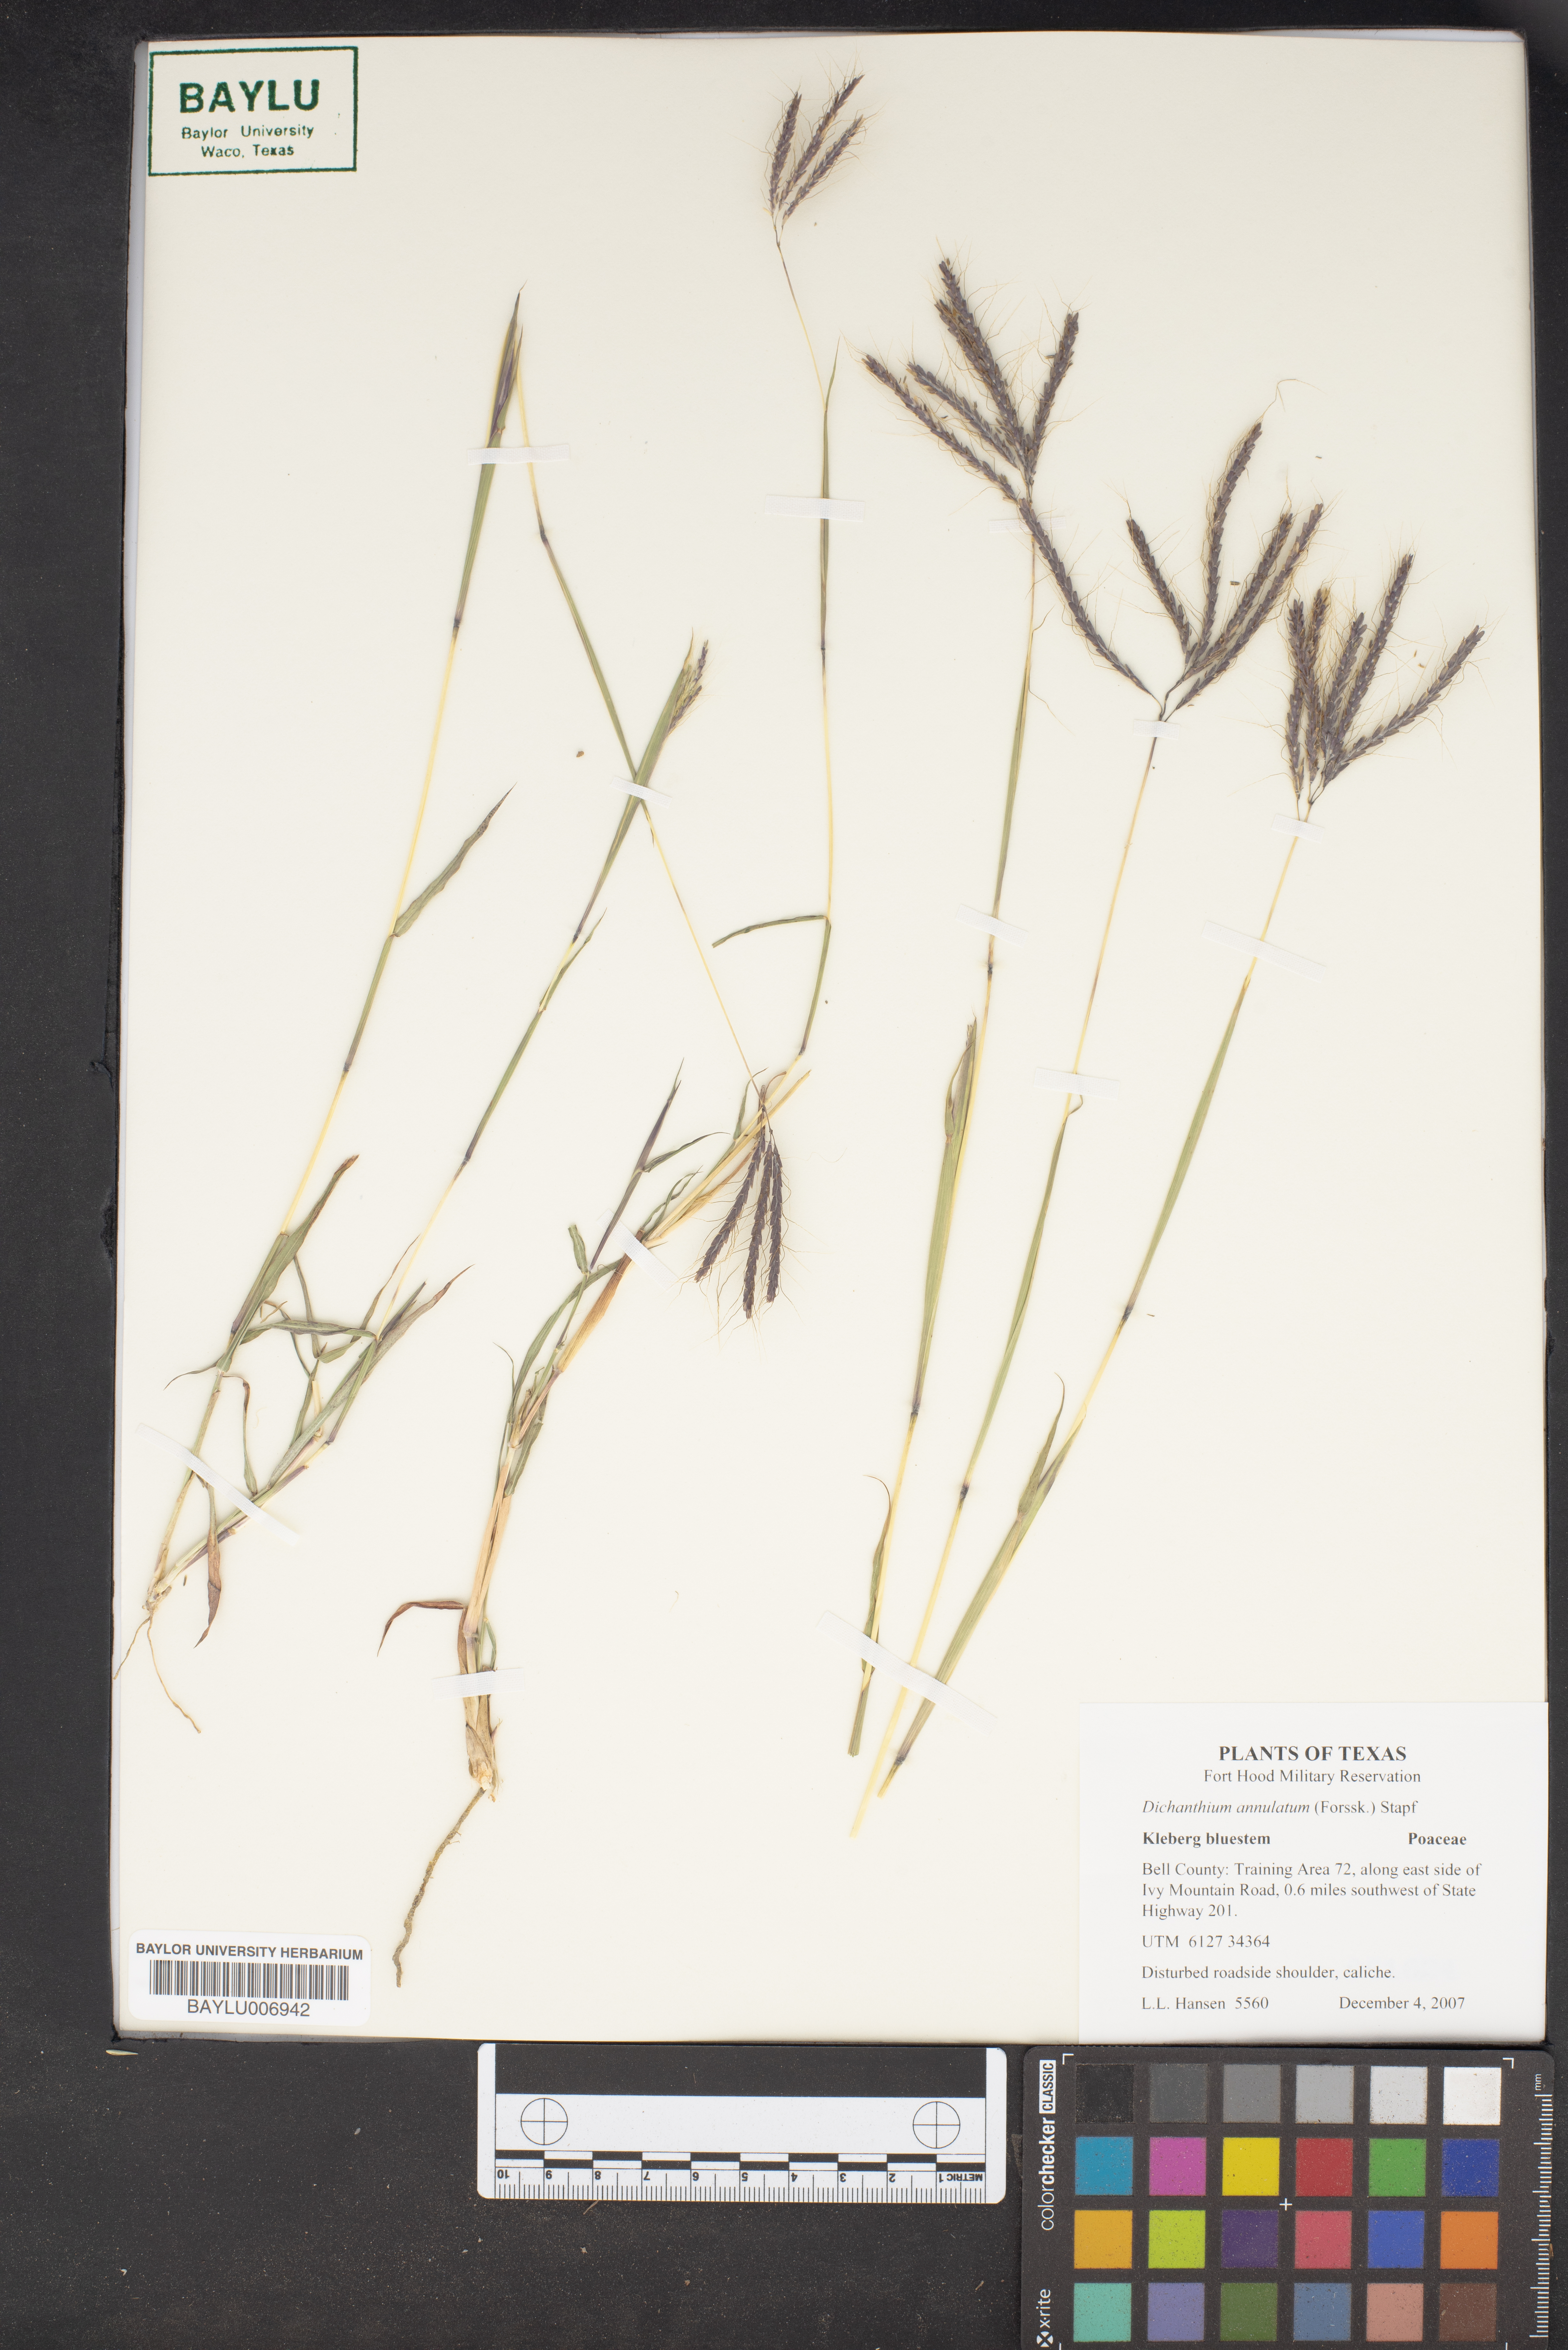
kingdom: Plantae
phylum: Tracheophyta
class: Liliopsida
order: Poales
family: Poaceae
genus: Dichanthium
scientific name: Dichanthium annulatum
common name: Kleberg's bluestem
